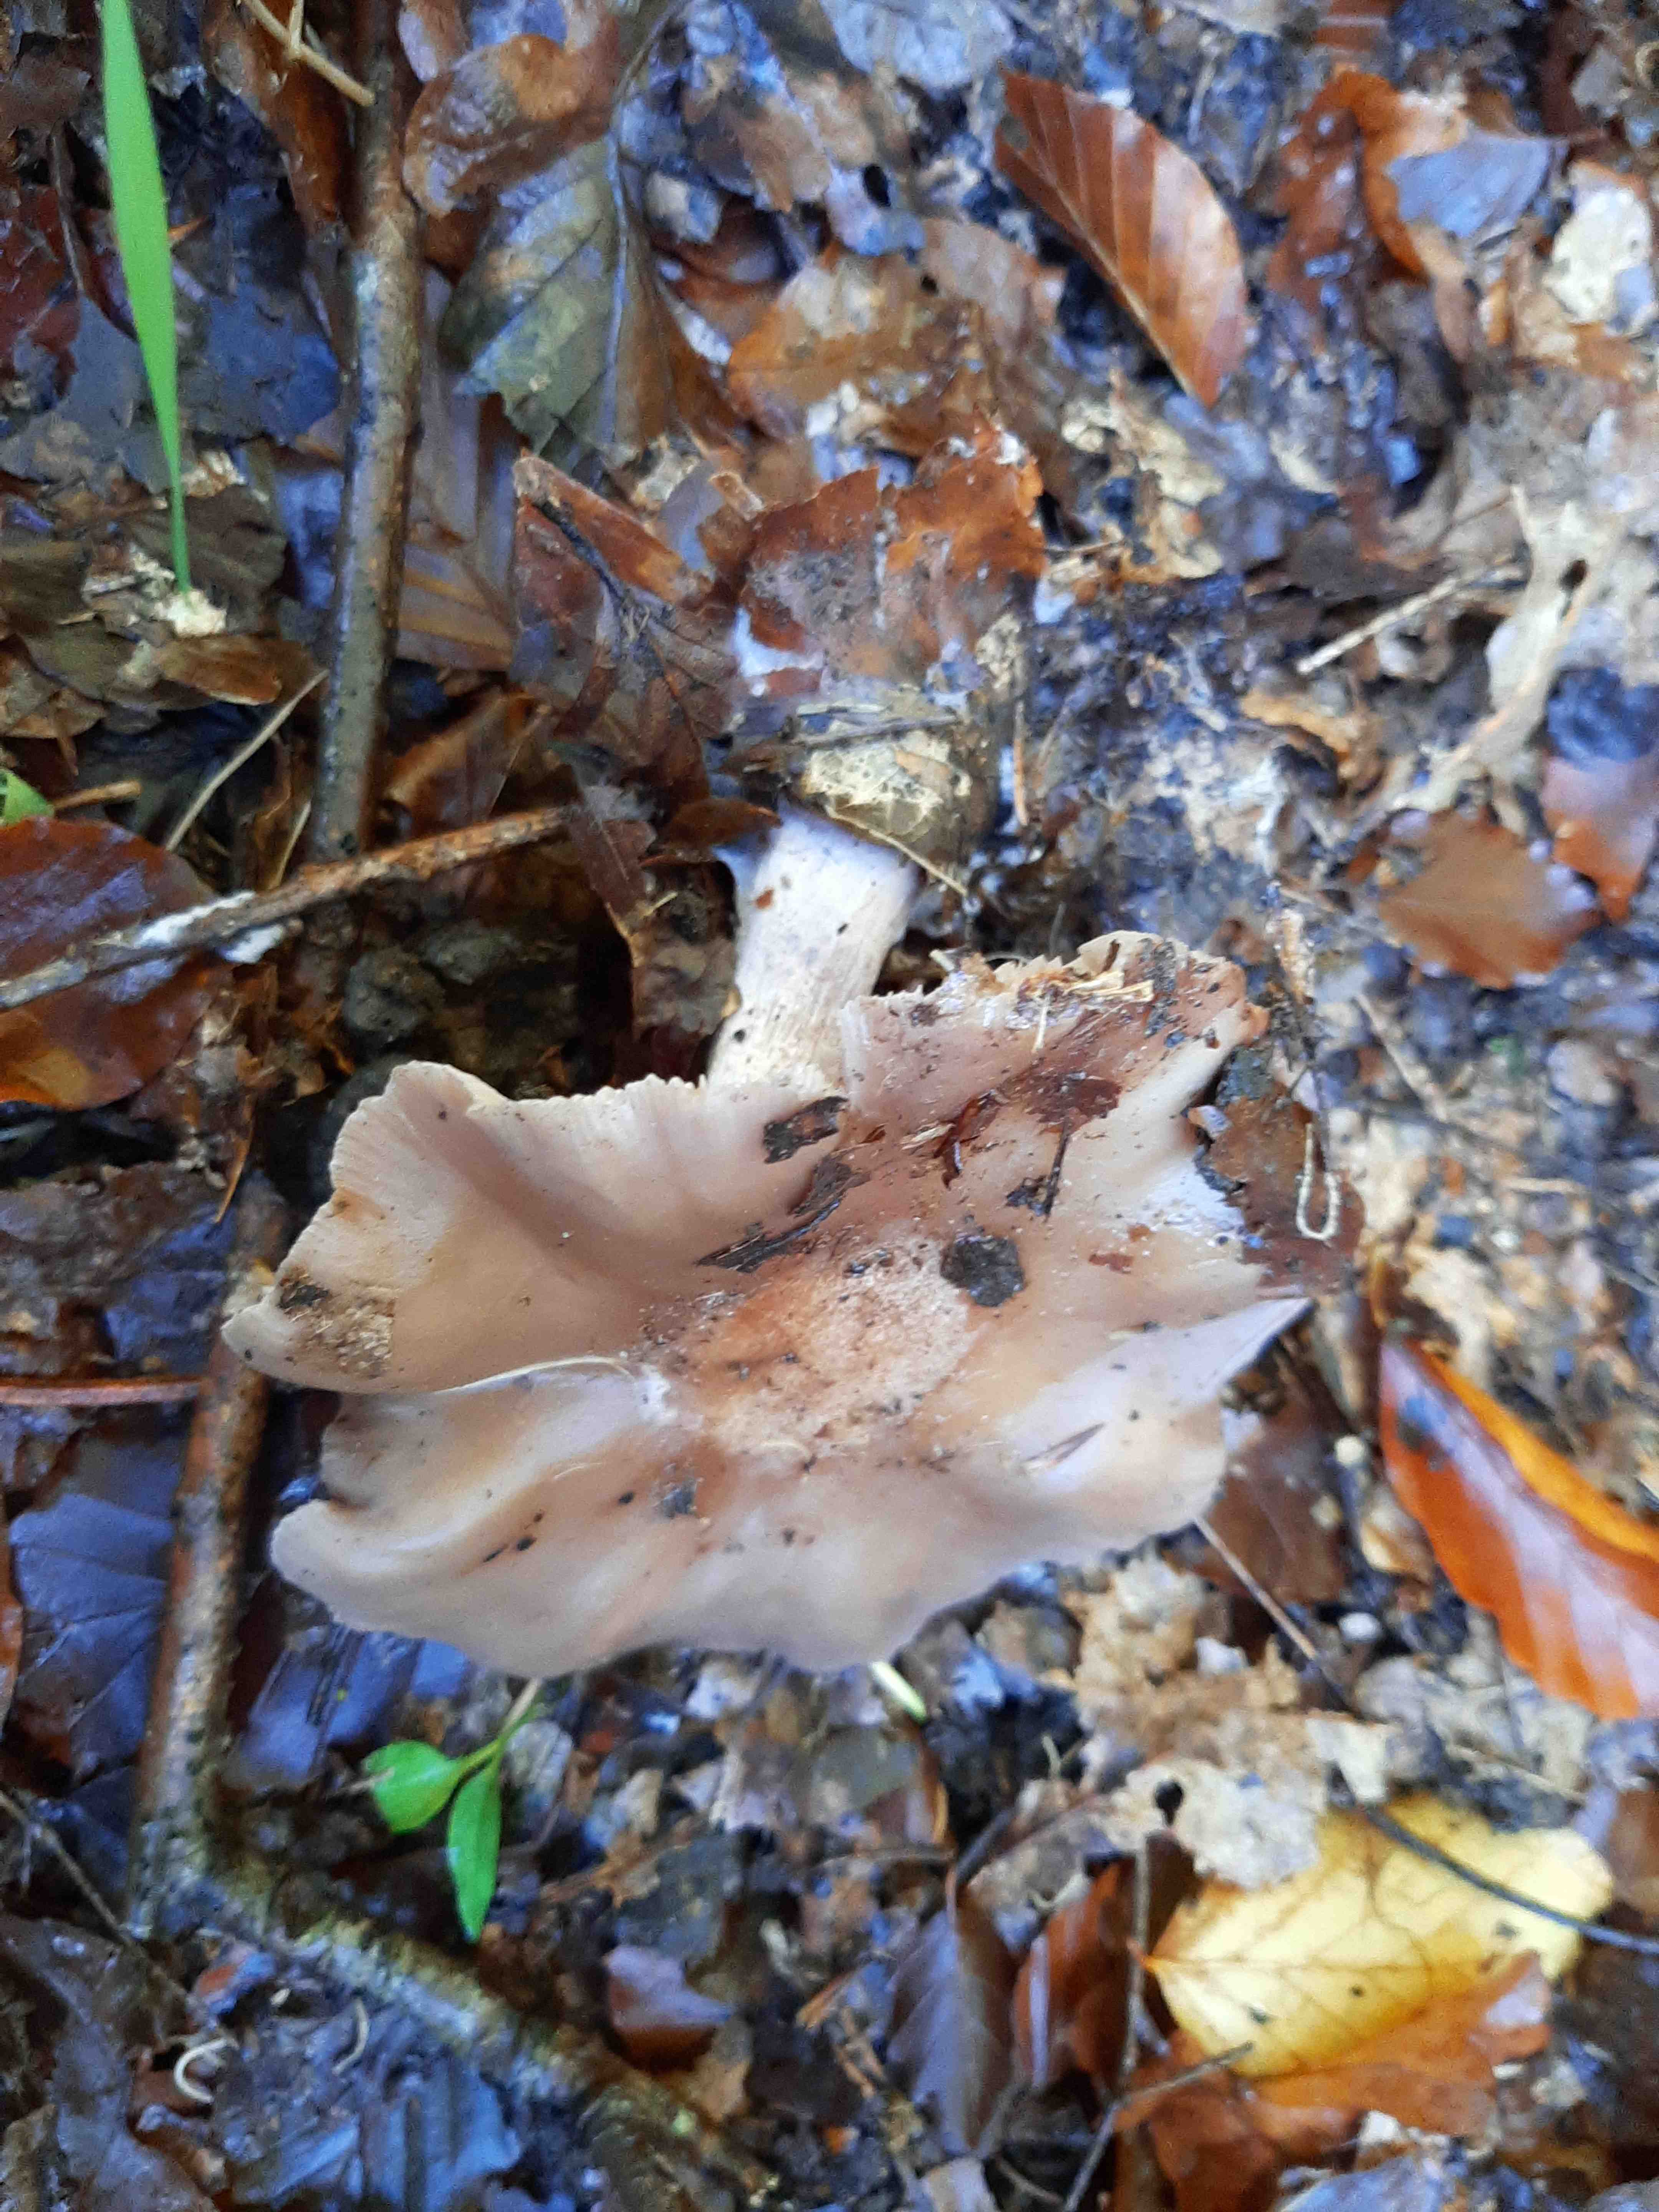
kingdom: Fungi
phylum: Basidiomycota
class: Agaricomycetes
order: Agaricales
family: Tricholomataceae
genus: Lepista
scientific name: Lepista nuda
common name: violet hekseringshat
